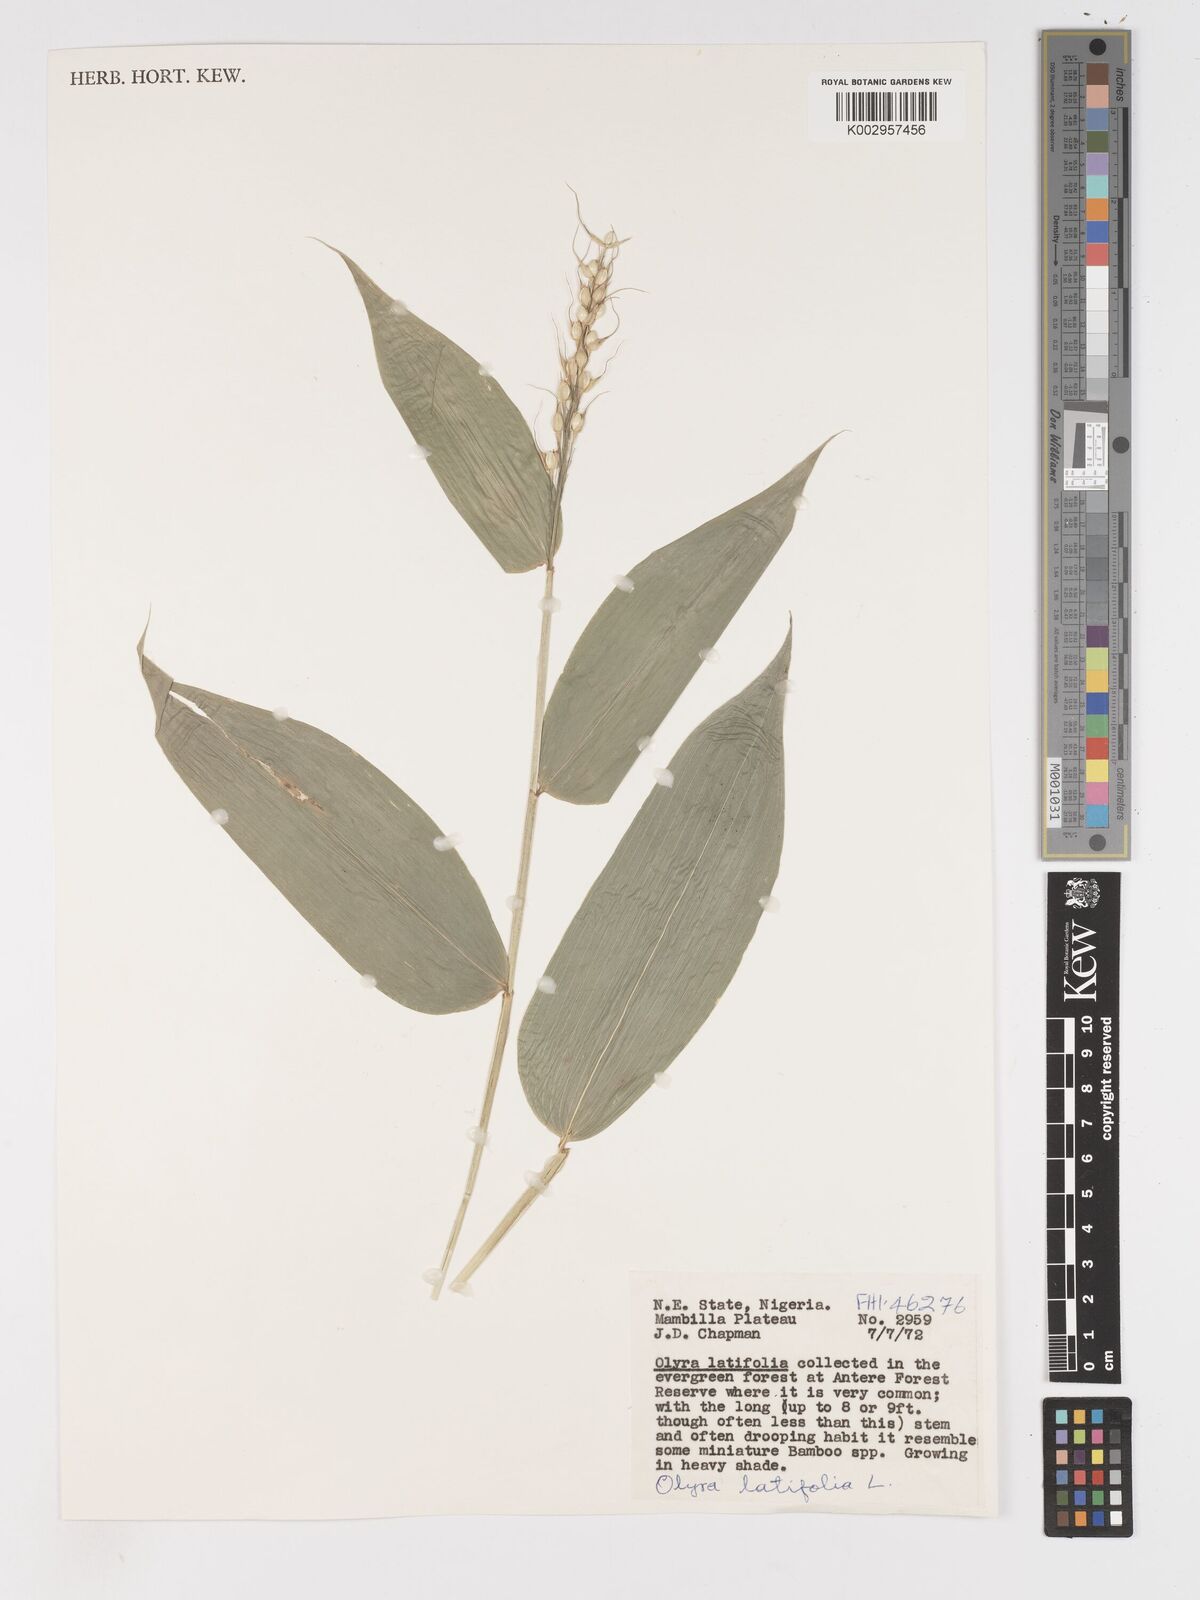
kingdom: Plantae
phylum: Tracheophyta
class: Liliopsida
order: Poales
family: Poaceae
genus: Olyra
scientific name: Olyra latifolia
